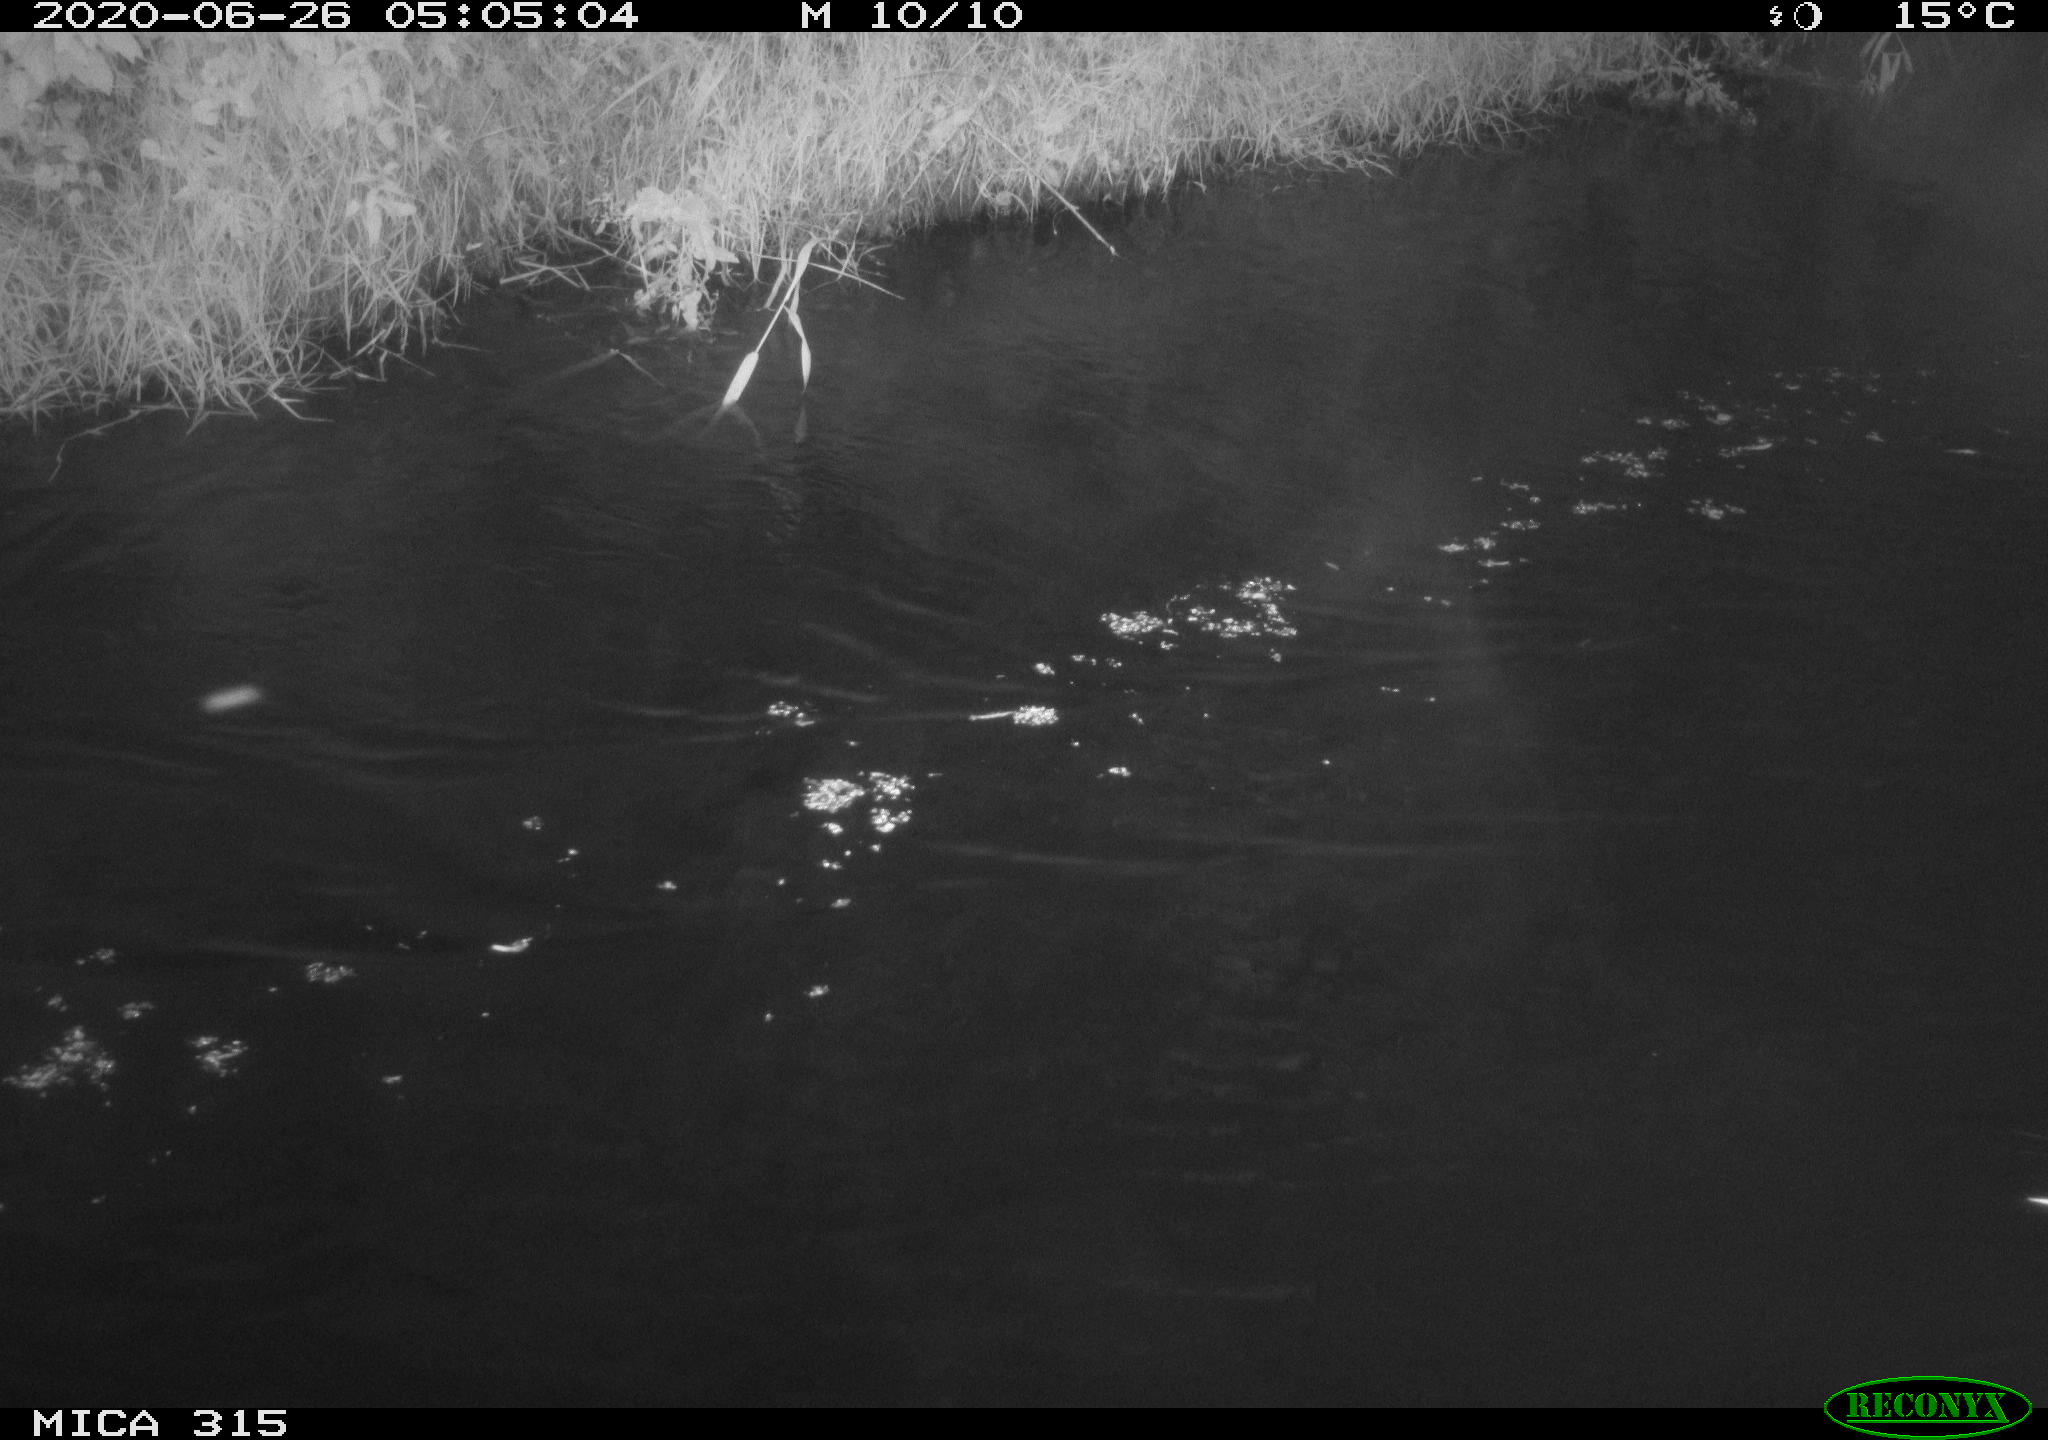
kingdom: Animalia
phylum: Chordata
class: Aves
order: Anseriformes
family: Anatidae
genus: Anas
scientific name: Anas platyrhynchos
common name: Mallard
